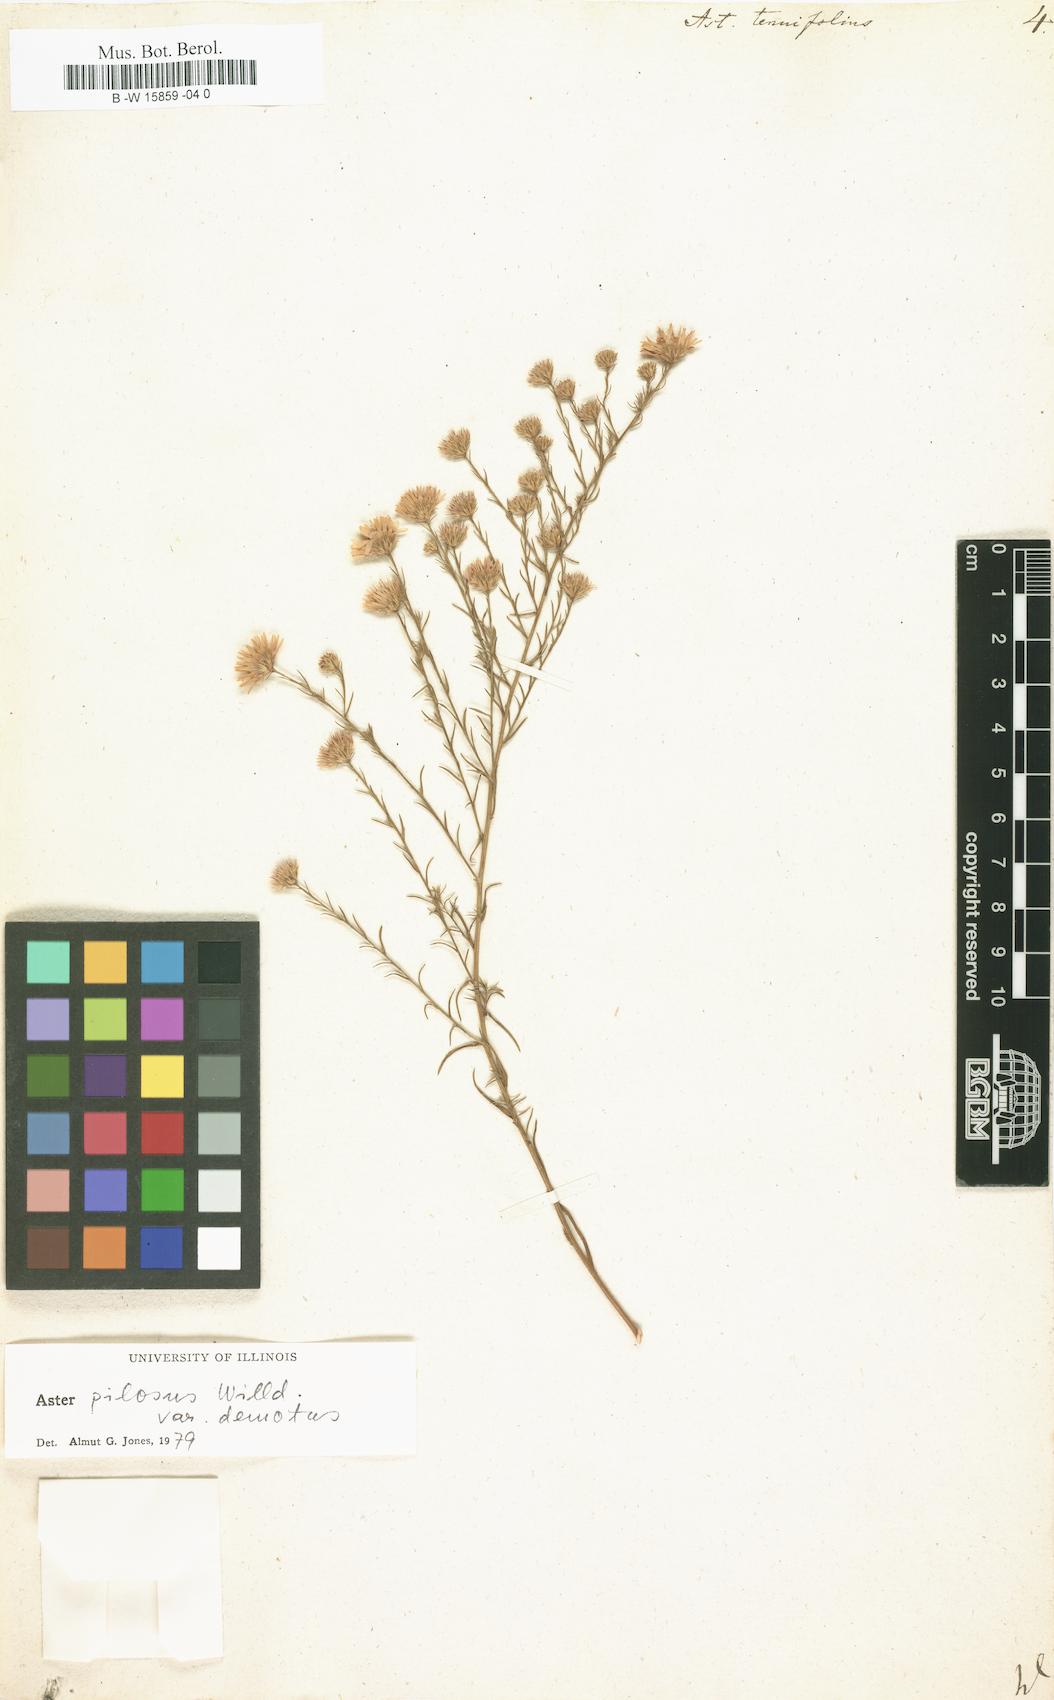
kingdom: Plantae
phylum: Tracheophyta
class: Magnoliopsida
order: Asterales
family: Asteraceae
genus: Aster
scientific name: Aster tenuifolius
